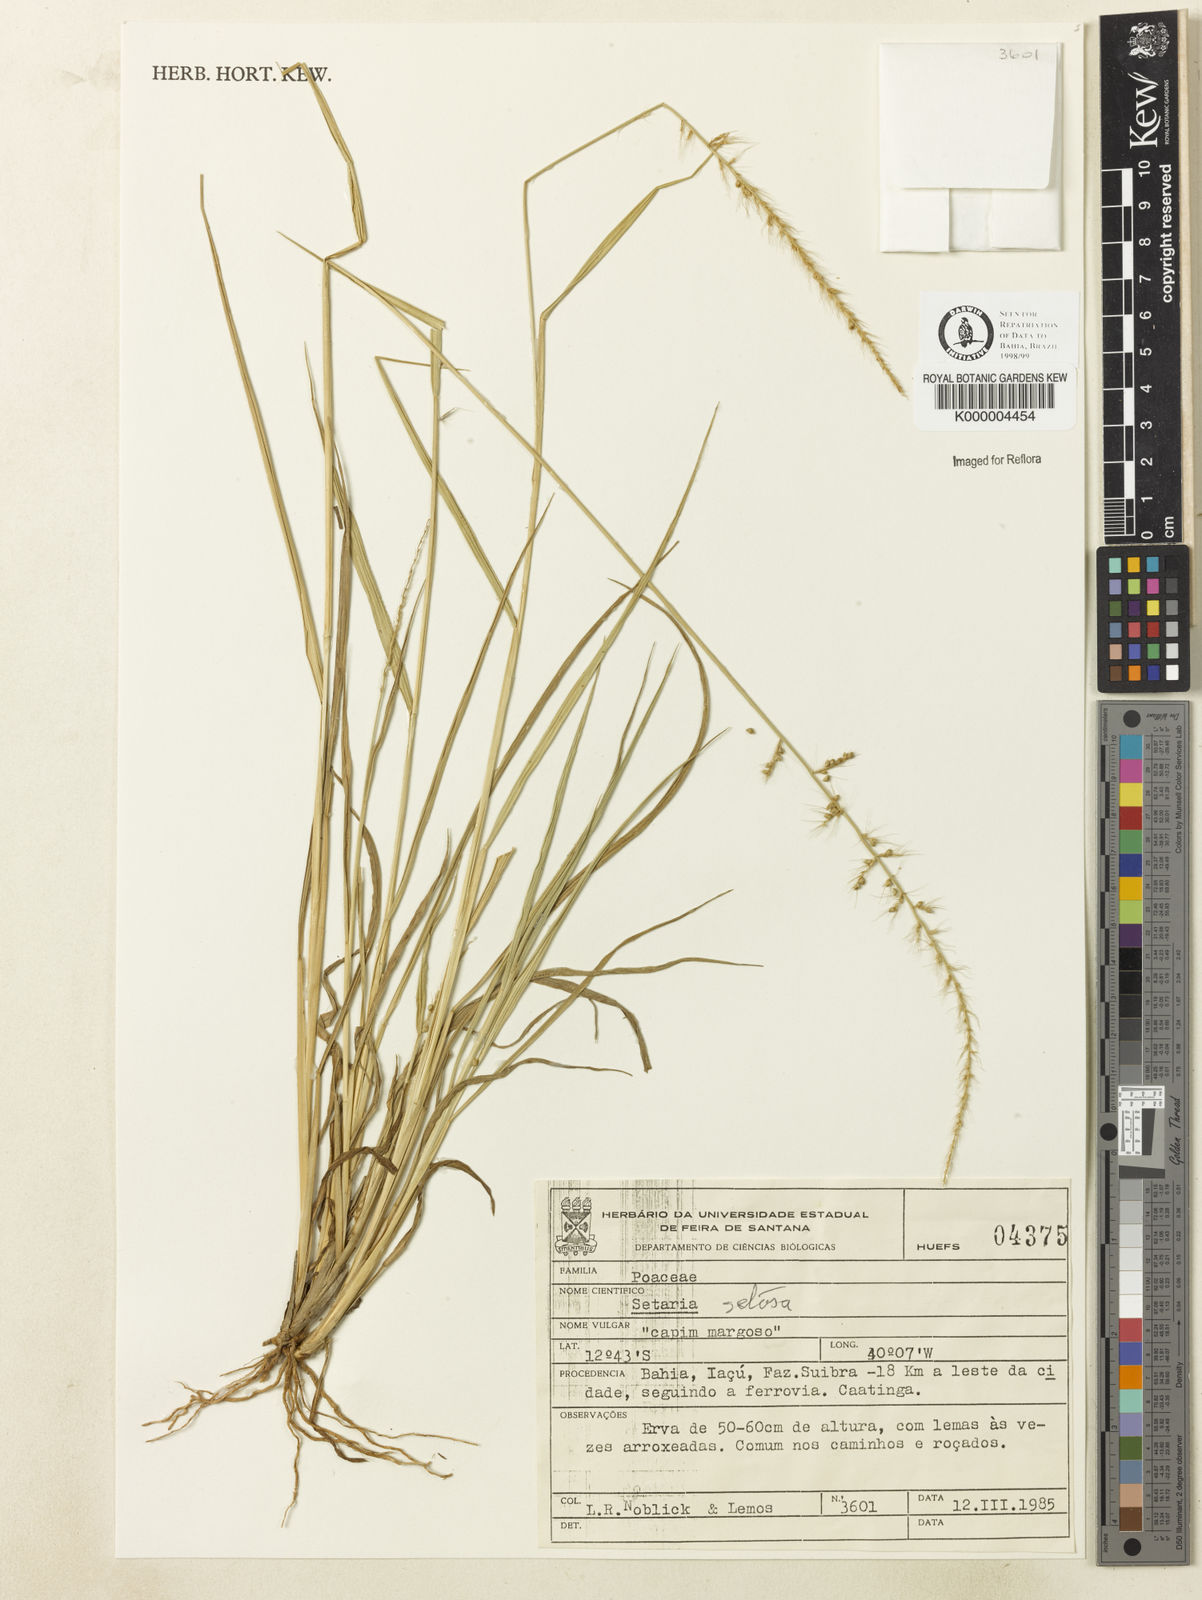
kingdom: Plantae
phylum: Tracheophyta
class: Liliopsida
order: Poales
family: Poaceae
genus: Setaria
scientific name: Setaria setosa
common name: West indies bristle grass
